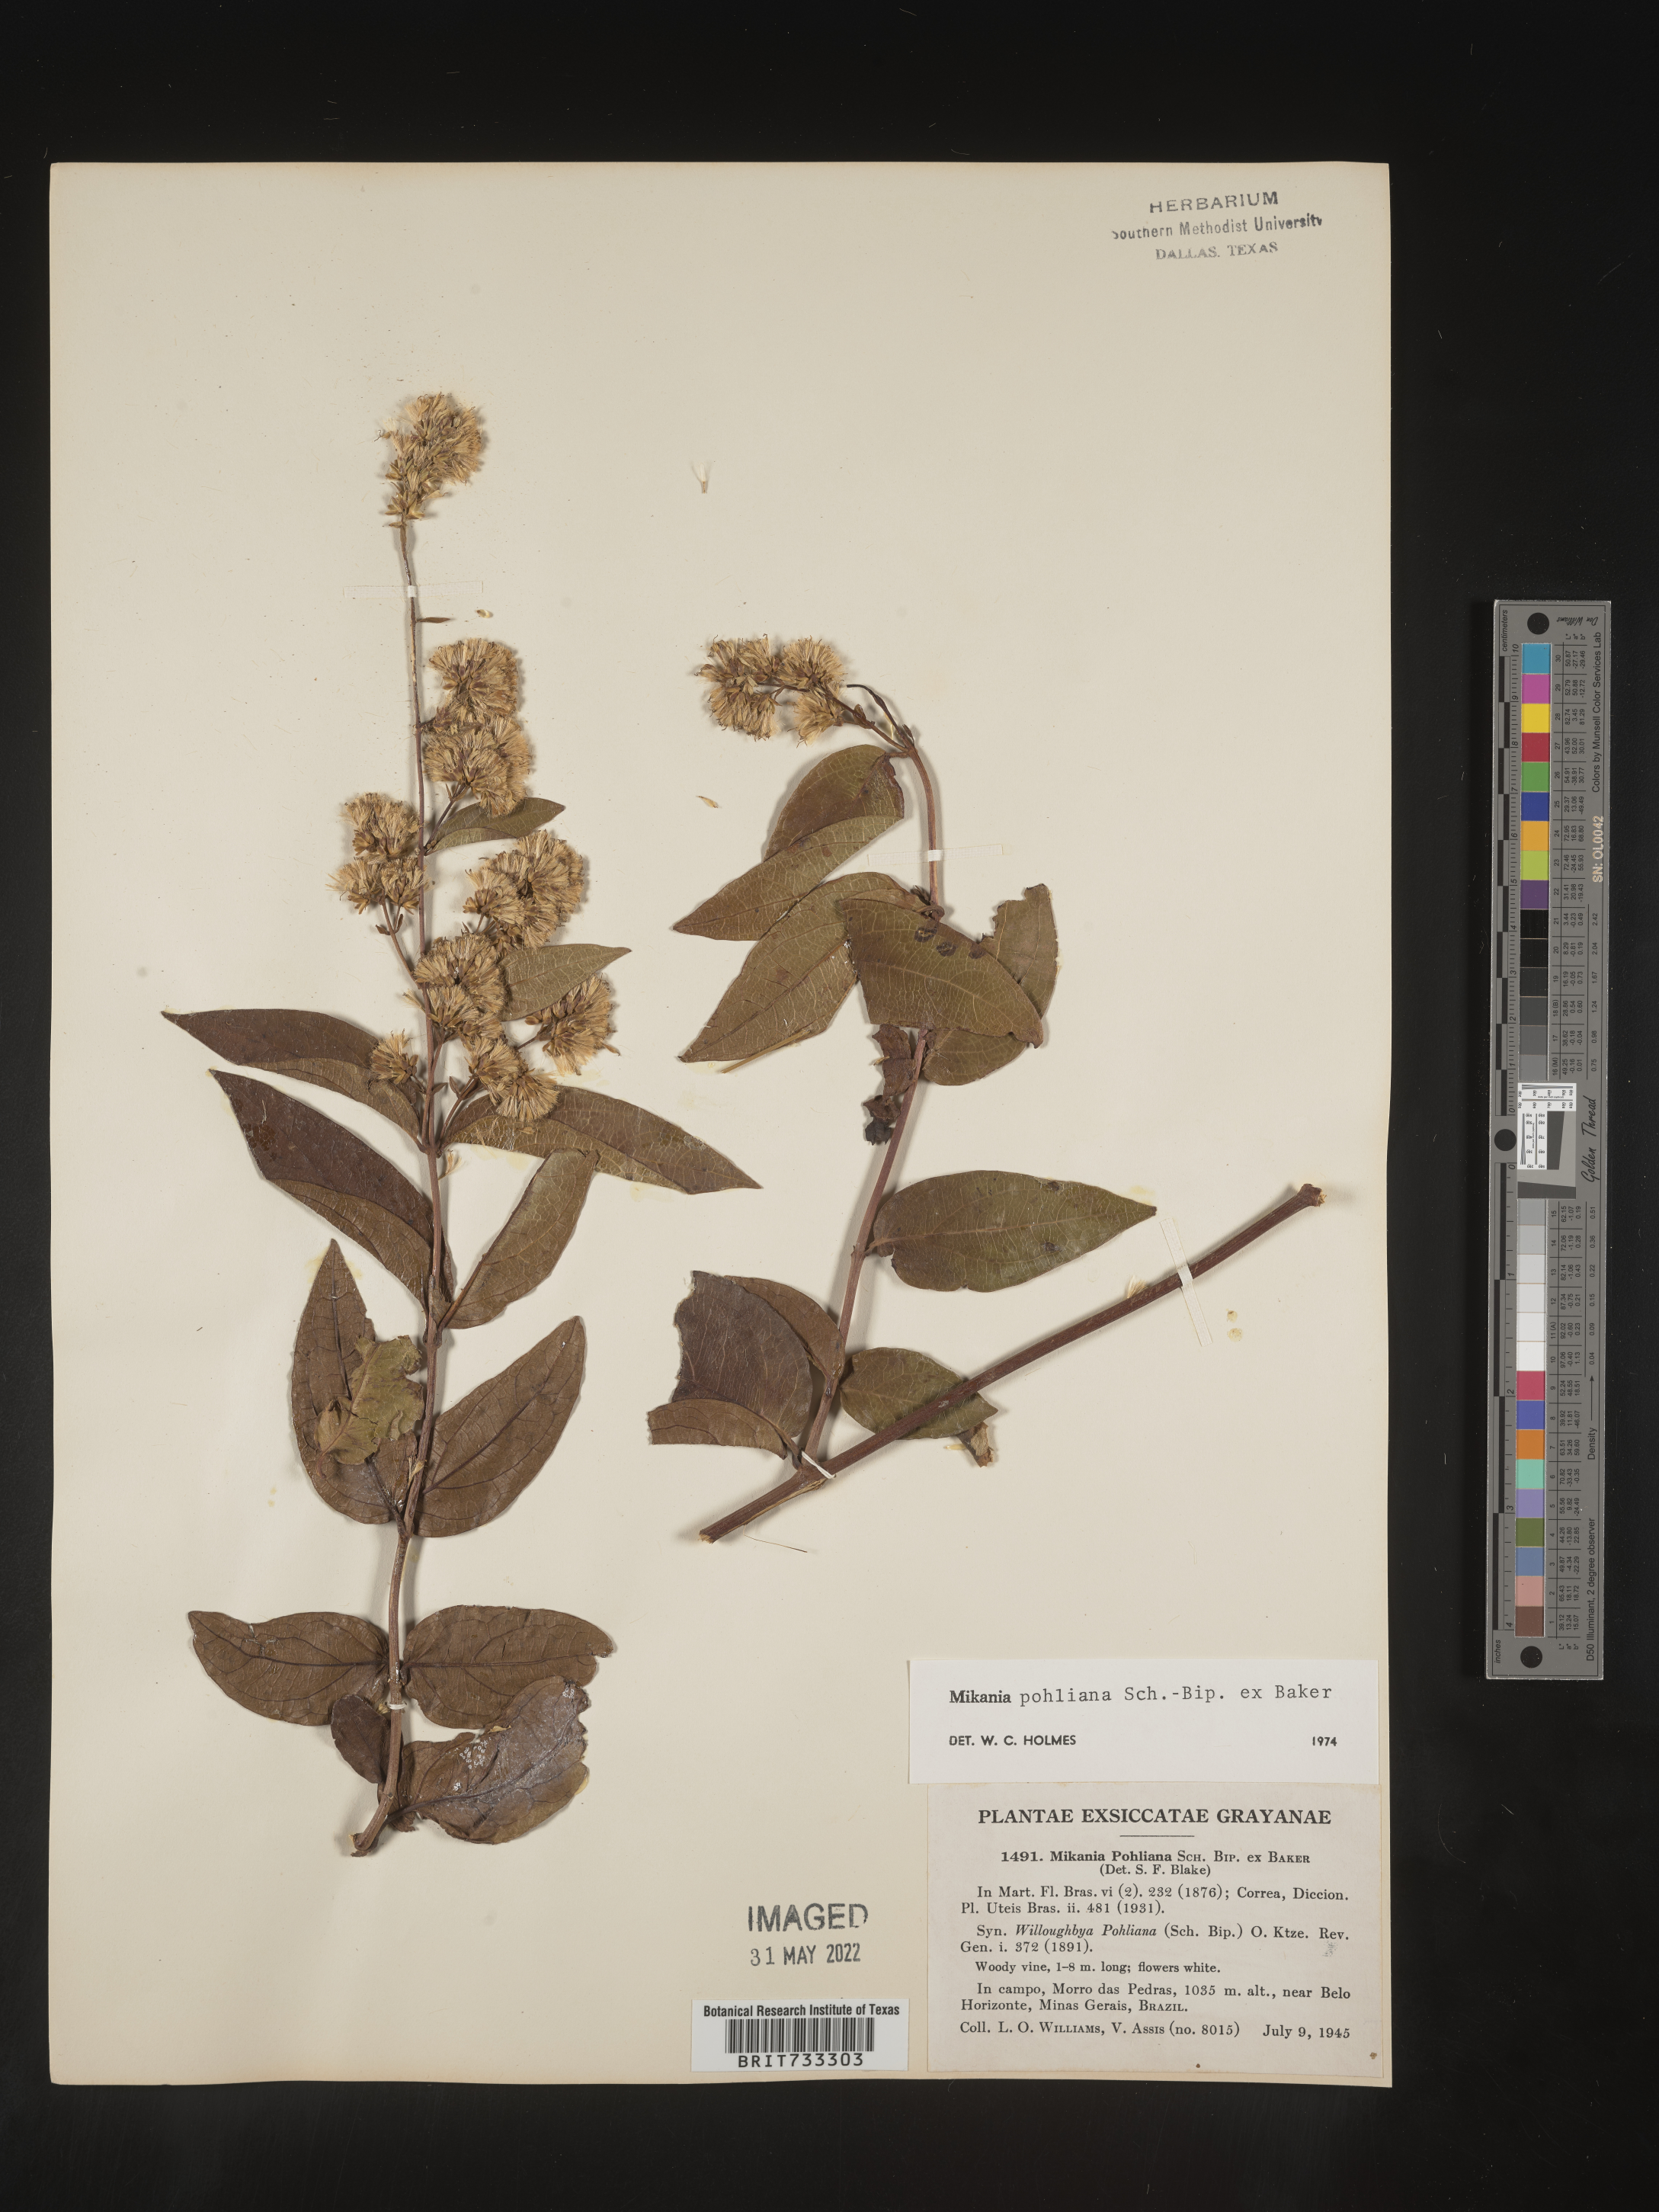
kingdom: Plantae
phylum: Tracheophyta
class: Magnoliopsida
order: Asterales
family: Asteraceae
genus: Mikania
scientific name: Mikania
